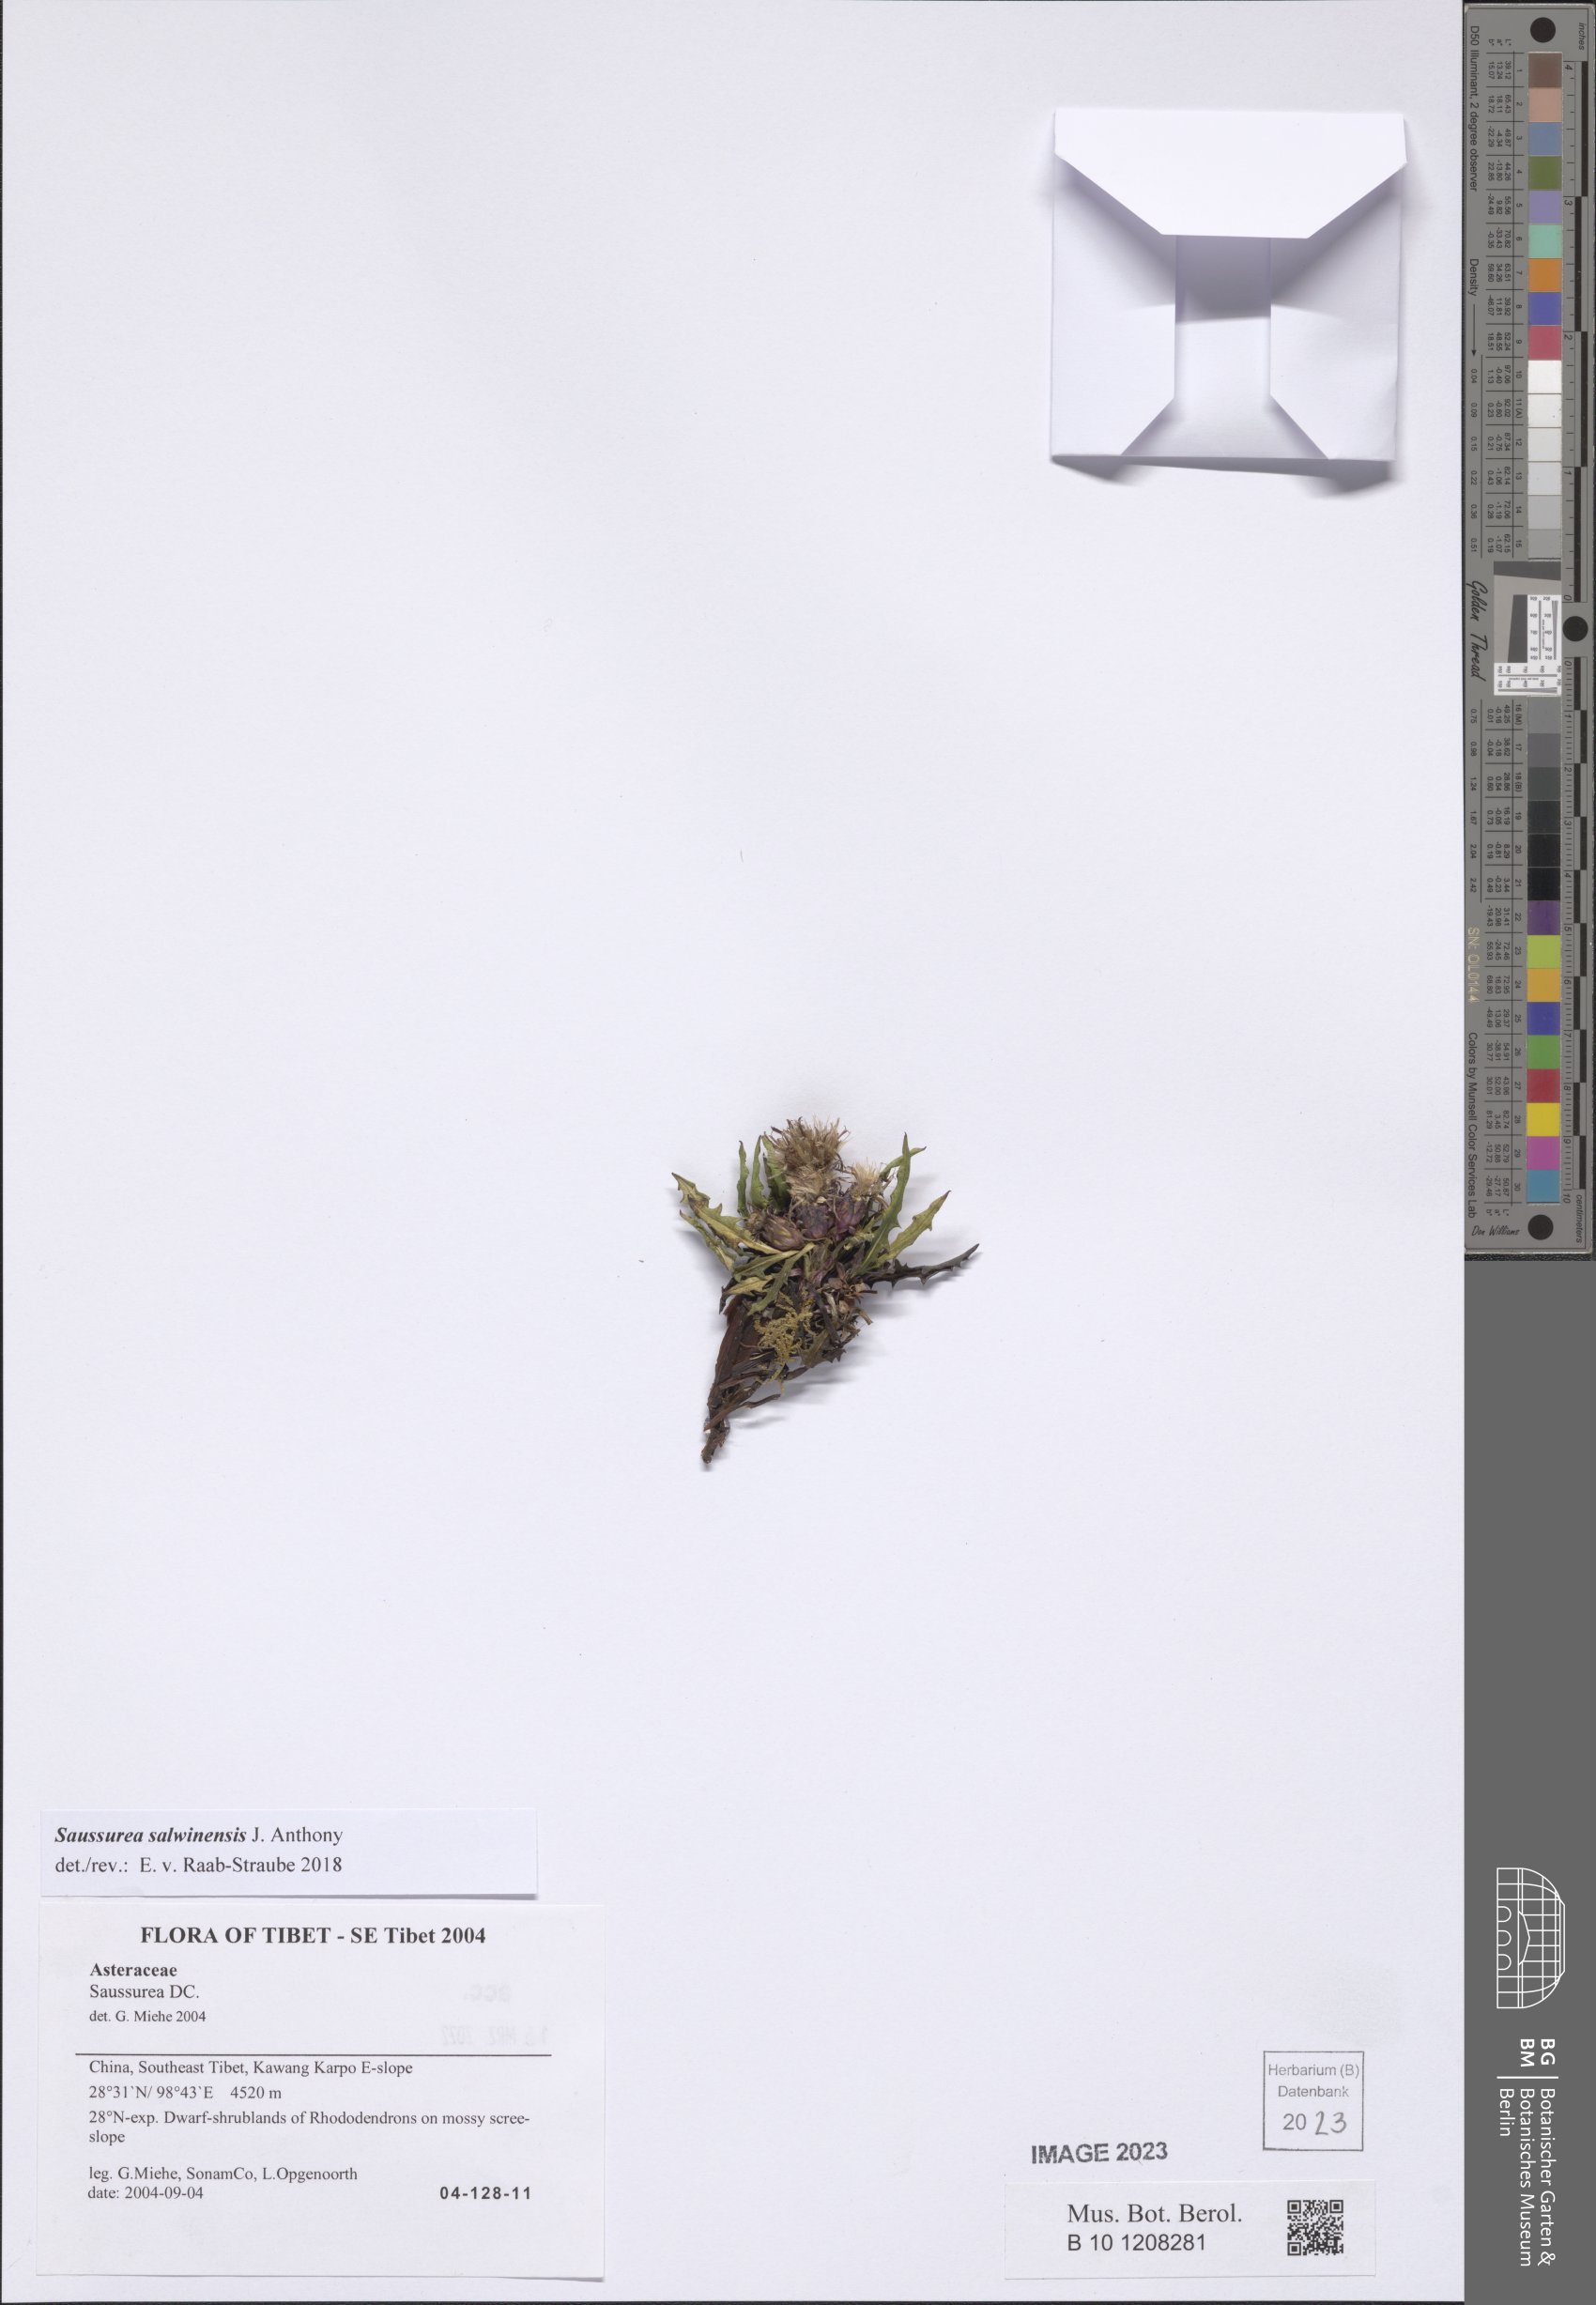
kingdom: Plantae
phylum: Tracheophyta
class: Magnoliopsida
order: Asterales
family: Asteraceae
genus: Saussurea
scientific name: Saussurea salwinensis
